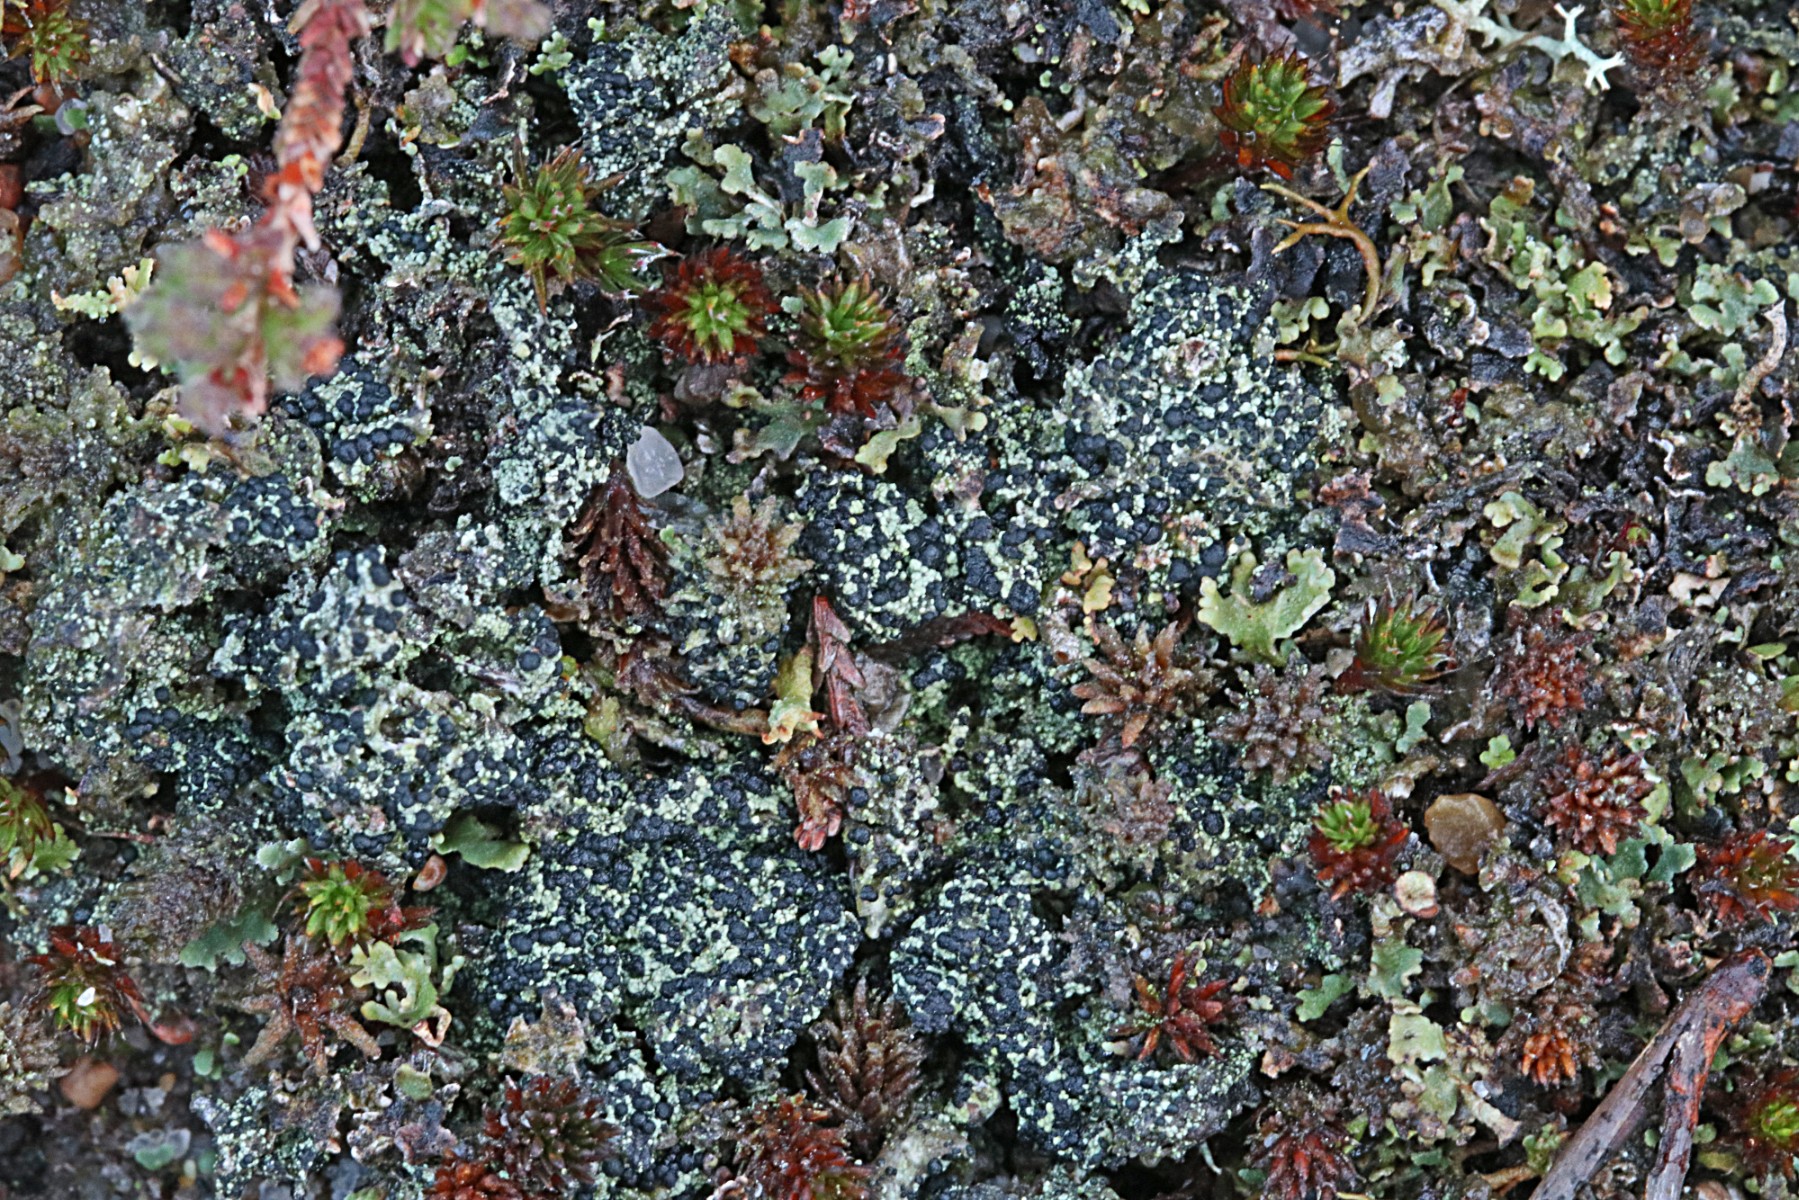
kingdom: Fungi
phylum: Ascomycota
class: Lecanoromycetes
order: Lecanorales
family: Byssolomataceae
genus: Micarea
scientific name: Micarea lignaria
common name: tørve-knaplav
